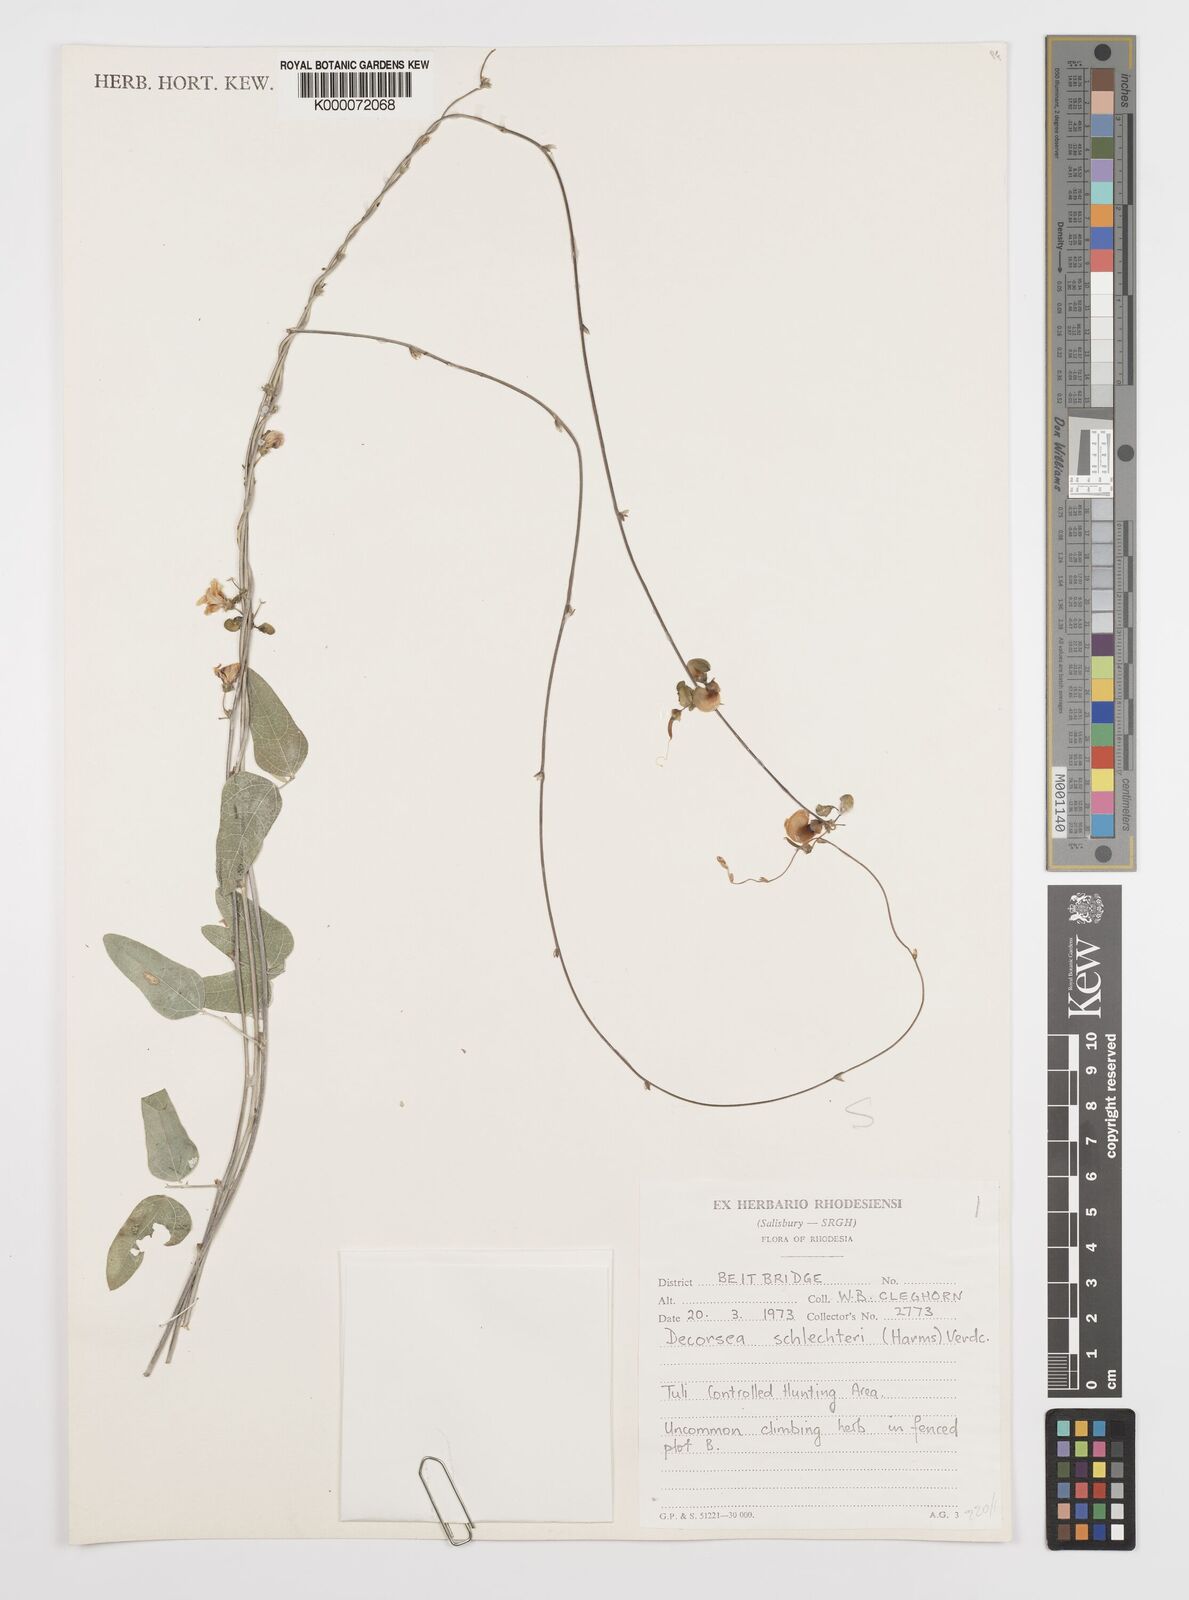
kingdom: Plantae
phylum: Tracheophyta
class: Magnoliopsida
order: Fabales
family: Fabaceae
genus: Decorsea
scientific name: Decorsea schlechteri
